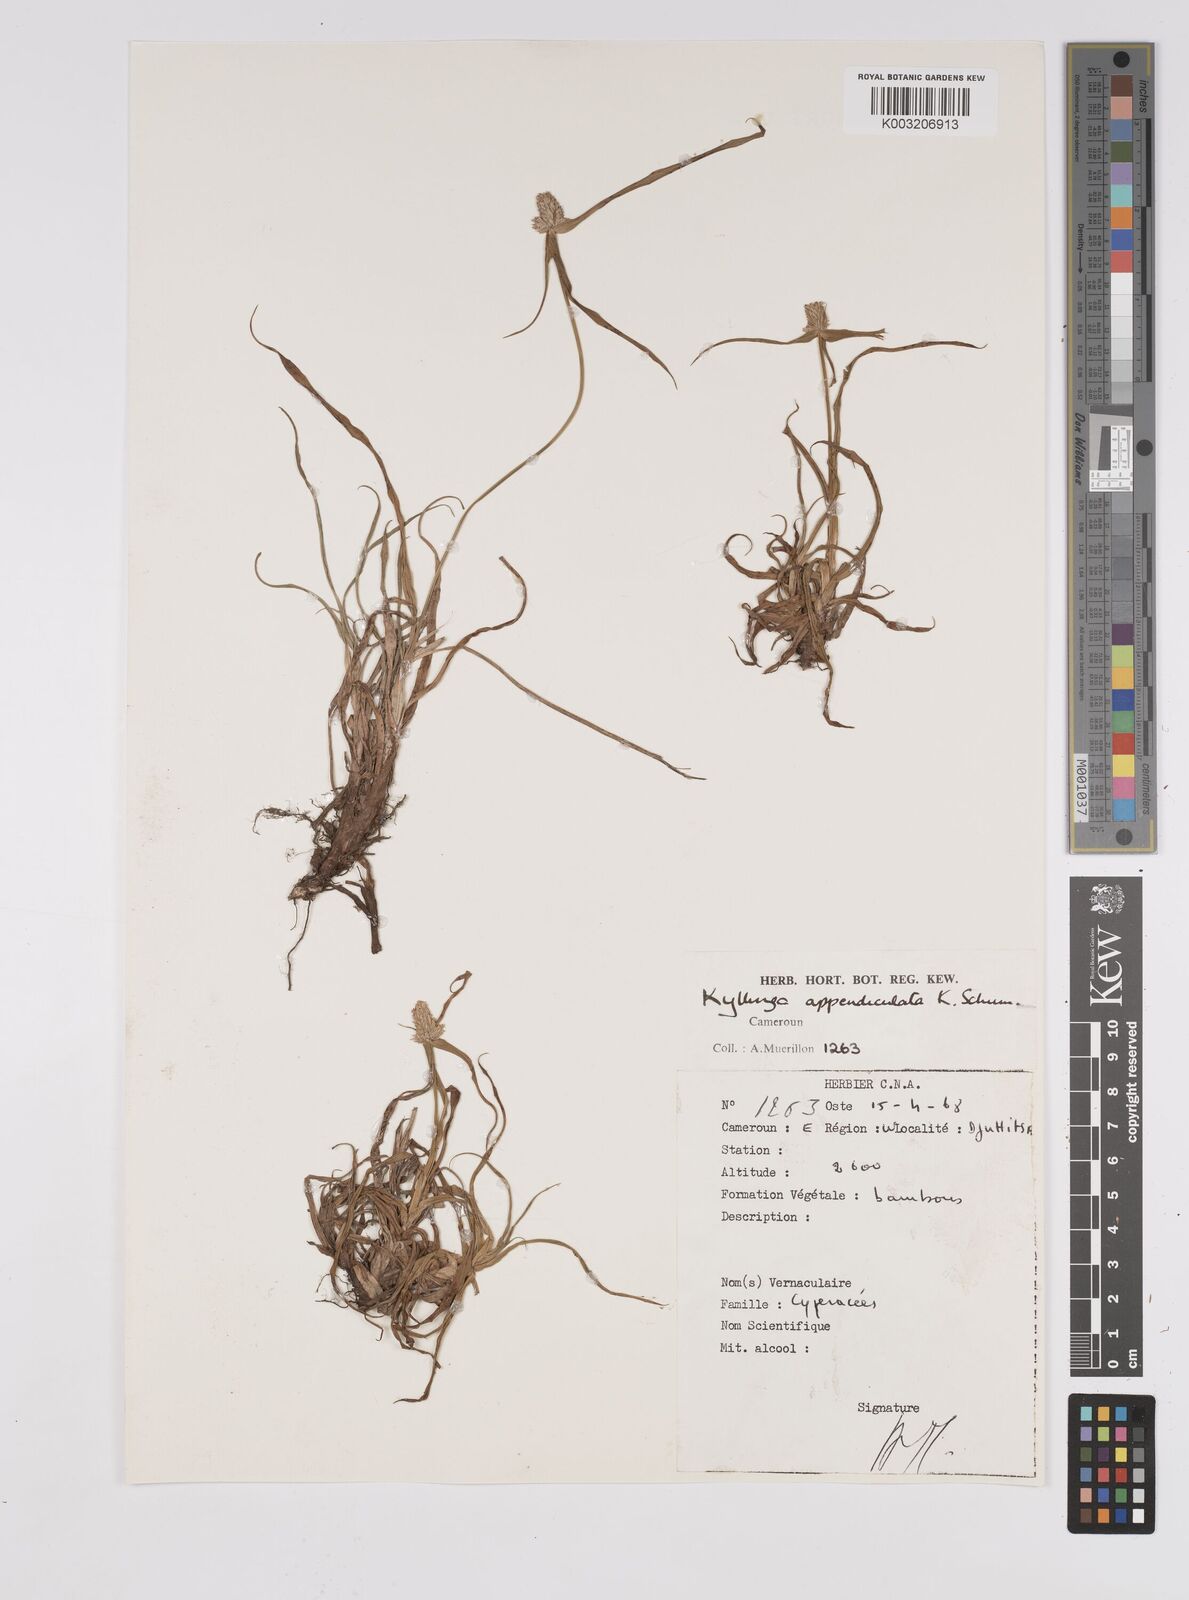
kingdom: Plantae
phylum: Tracheophyta
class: Liliopsida
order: Poales
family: Cyperaceae
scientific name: Cyperaceae
